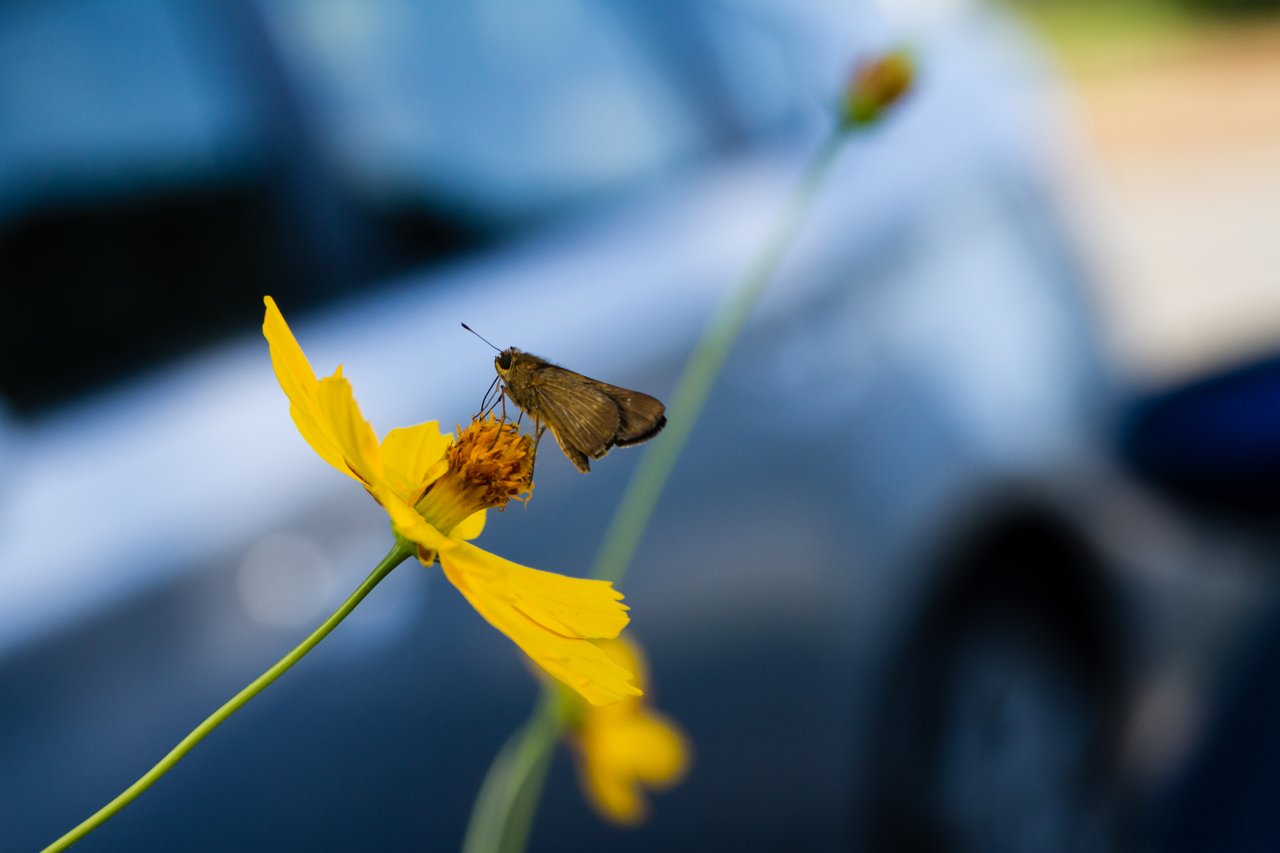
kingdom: Animalia
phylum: Arthropoda
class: Insecta
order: Lepidoptera
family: Hesperiidae
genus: Panoquina
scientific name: Panoquina ocola
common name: Ocola Skipper
